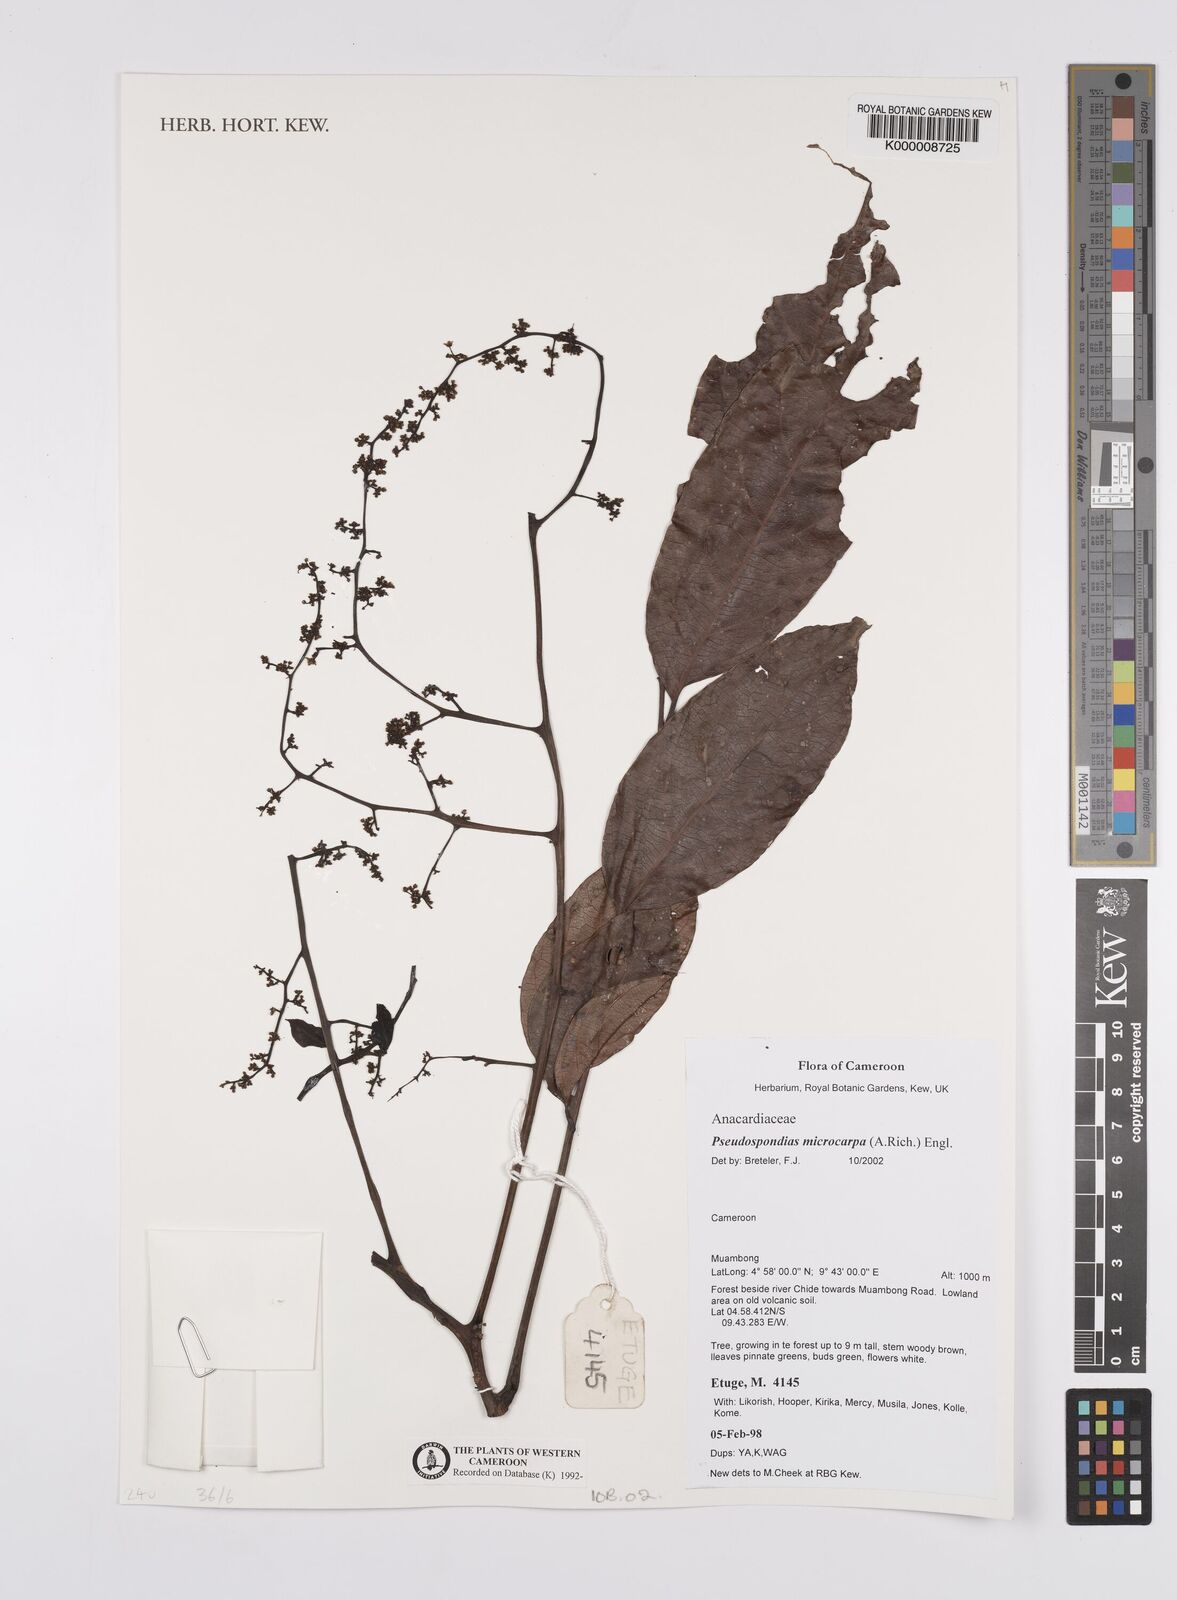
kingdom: Plantae
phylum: Tracheophyta
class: Magnoliopsida
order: Sapindales
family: Anacardiaceae
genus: Pseudospondias
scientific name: Pseudospondias microcarpa
